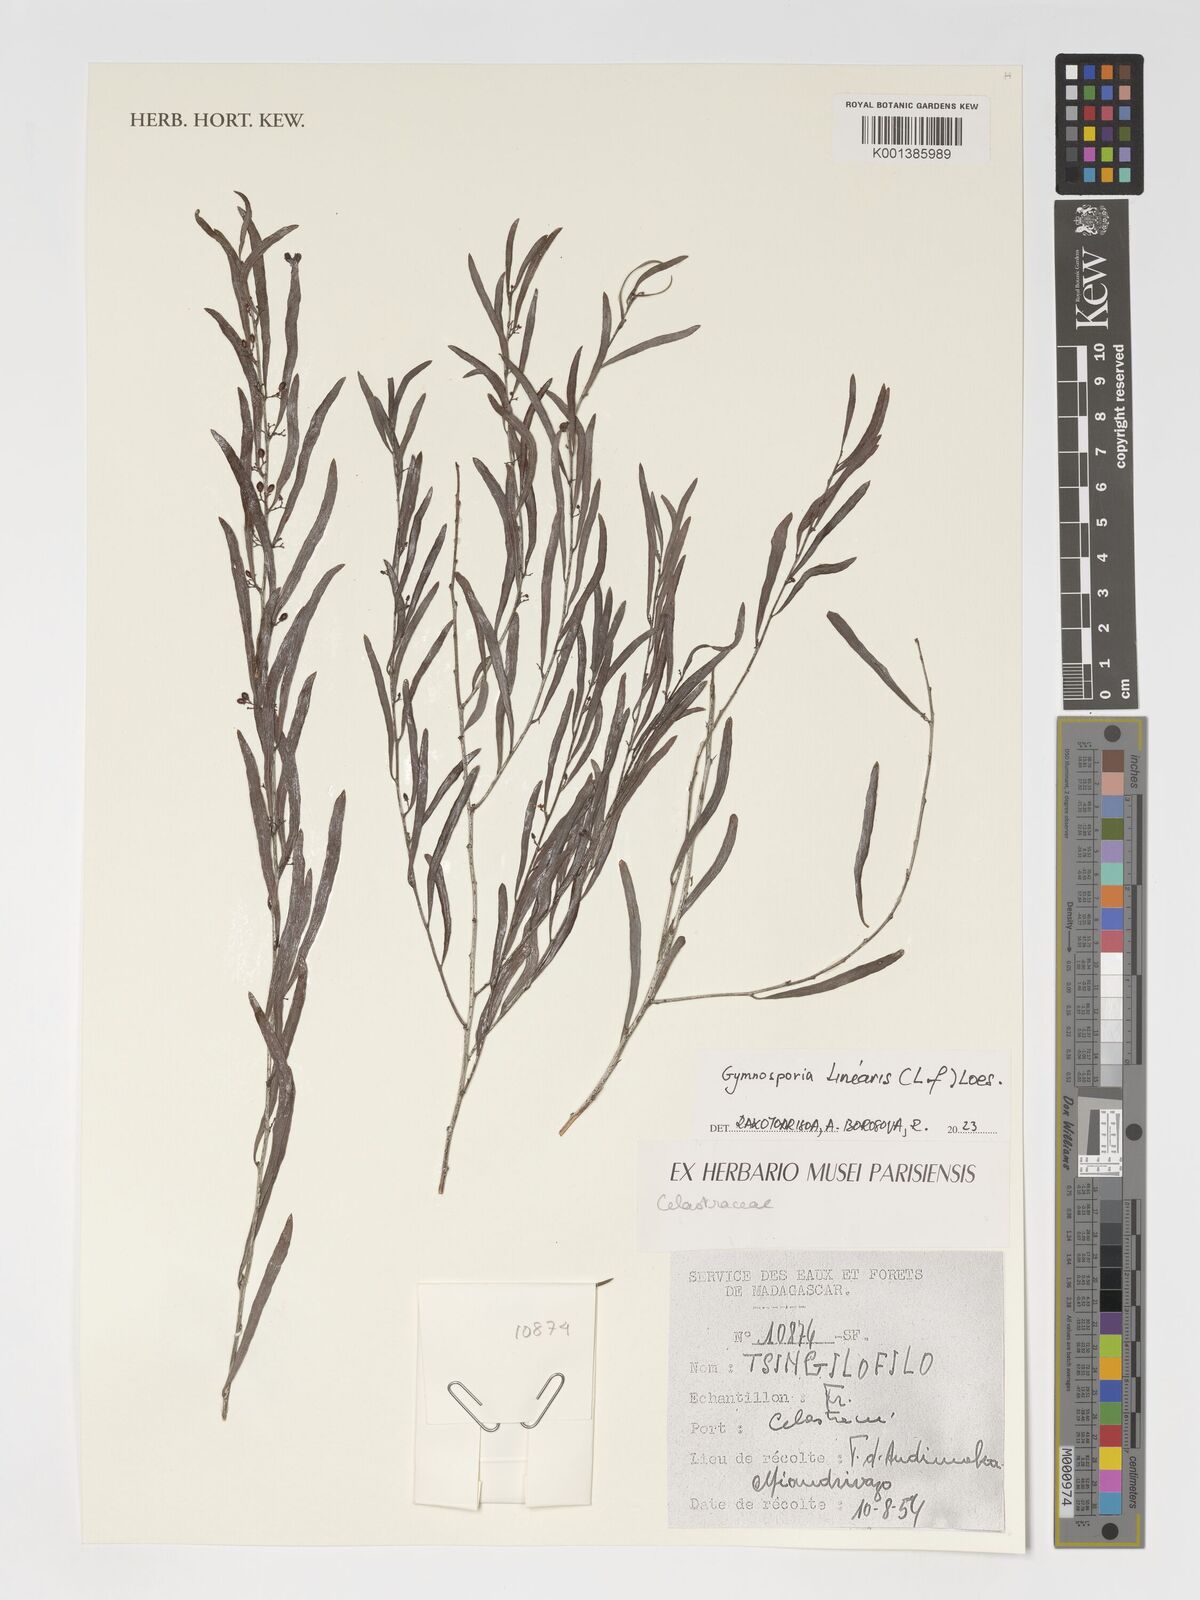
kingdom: Plantae
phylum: Tracheophyta
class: Magnoliopsida
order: Celastrales
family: Celastraceae
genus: Gymnosporia
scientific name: Gymnosporia linearis
